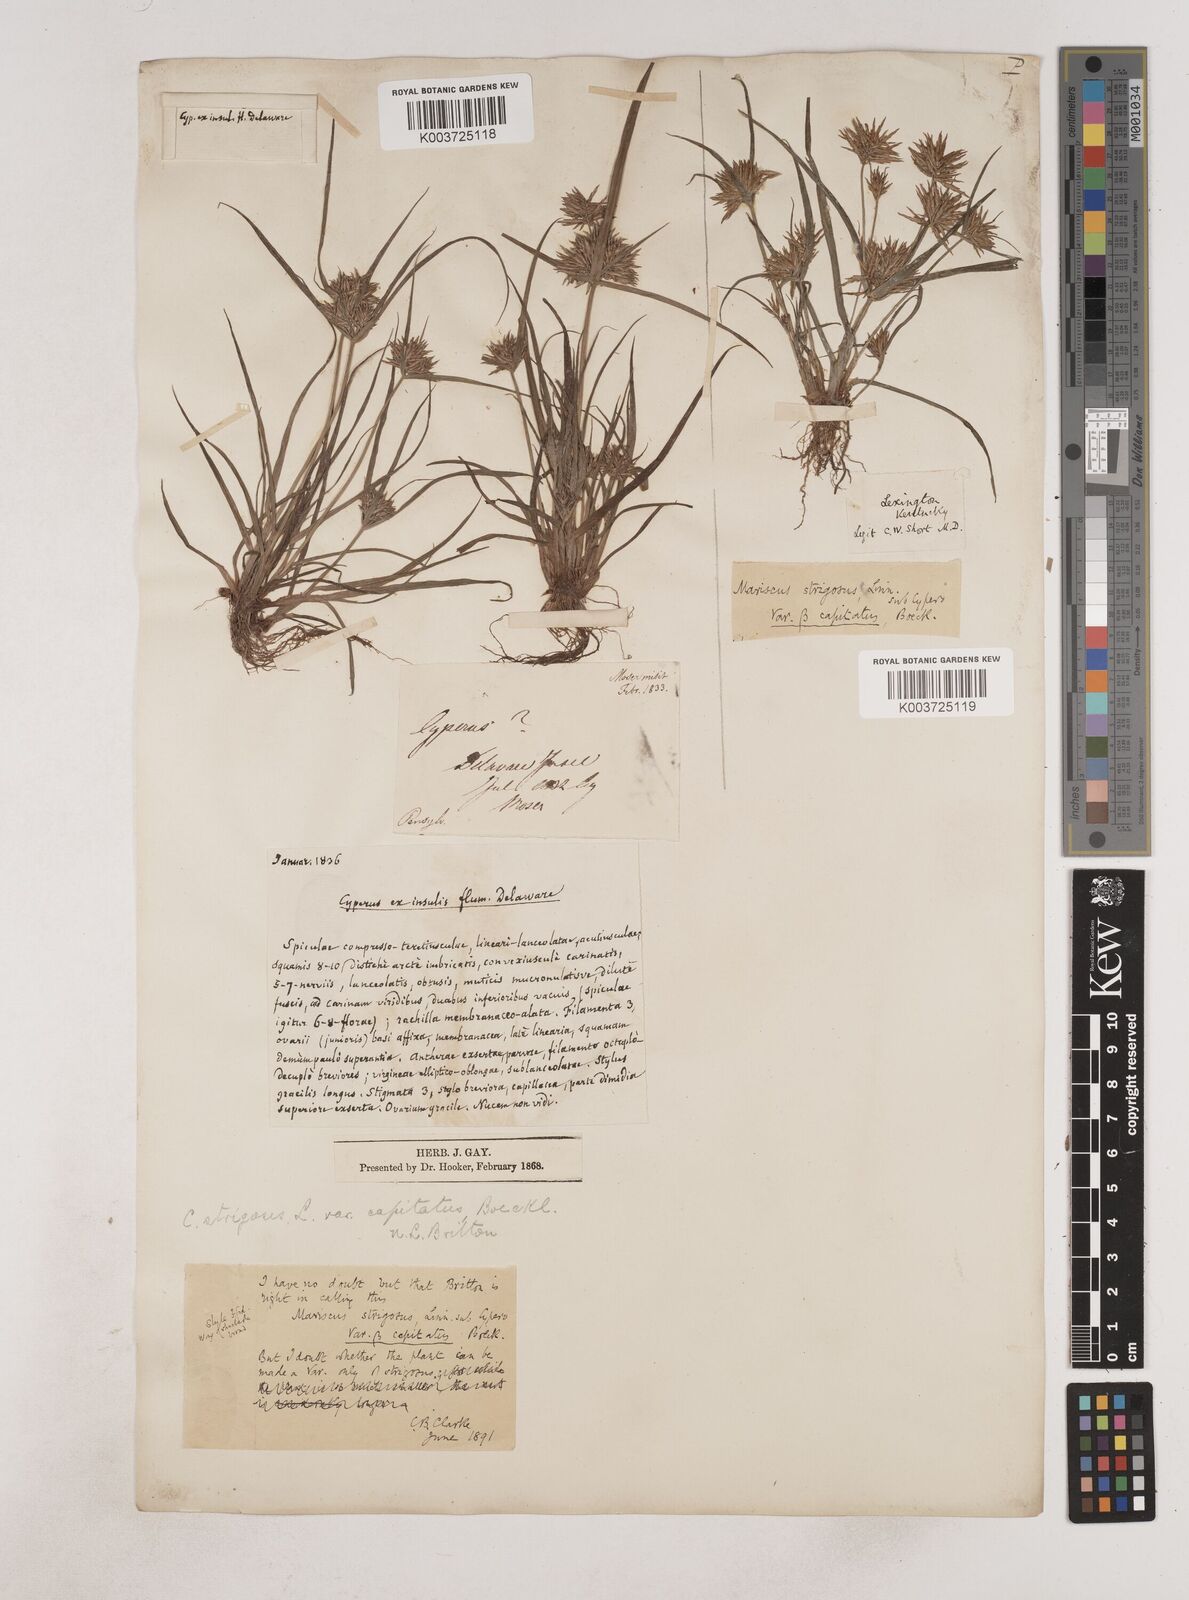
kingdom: Plantae
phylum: Tracheophyta
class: Liliopsida
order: Poales
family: Cyperaceae
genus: Cyperus
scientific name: Cyperus strigosus
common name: False nutsedge
